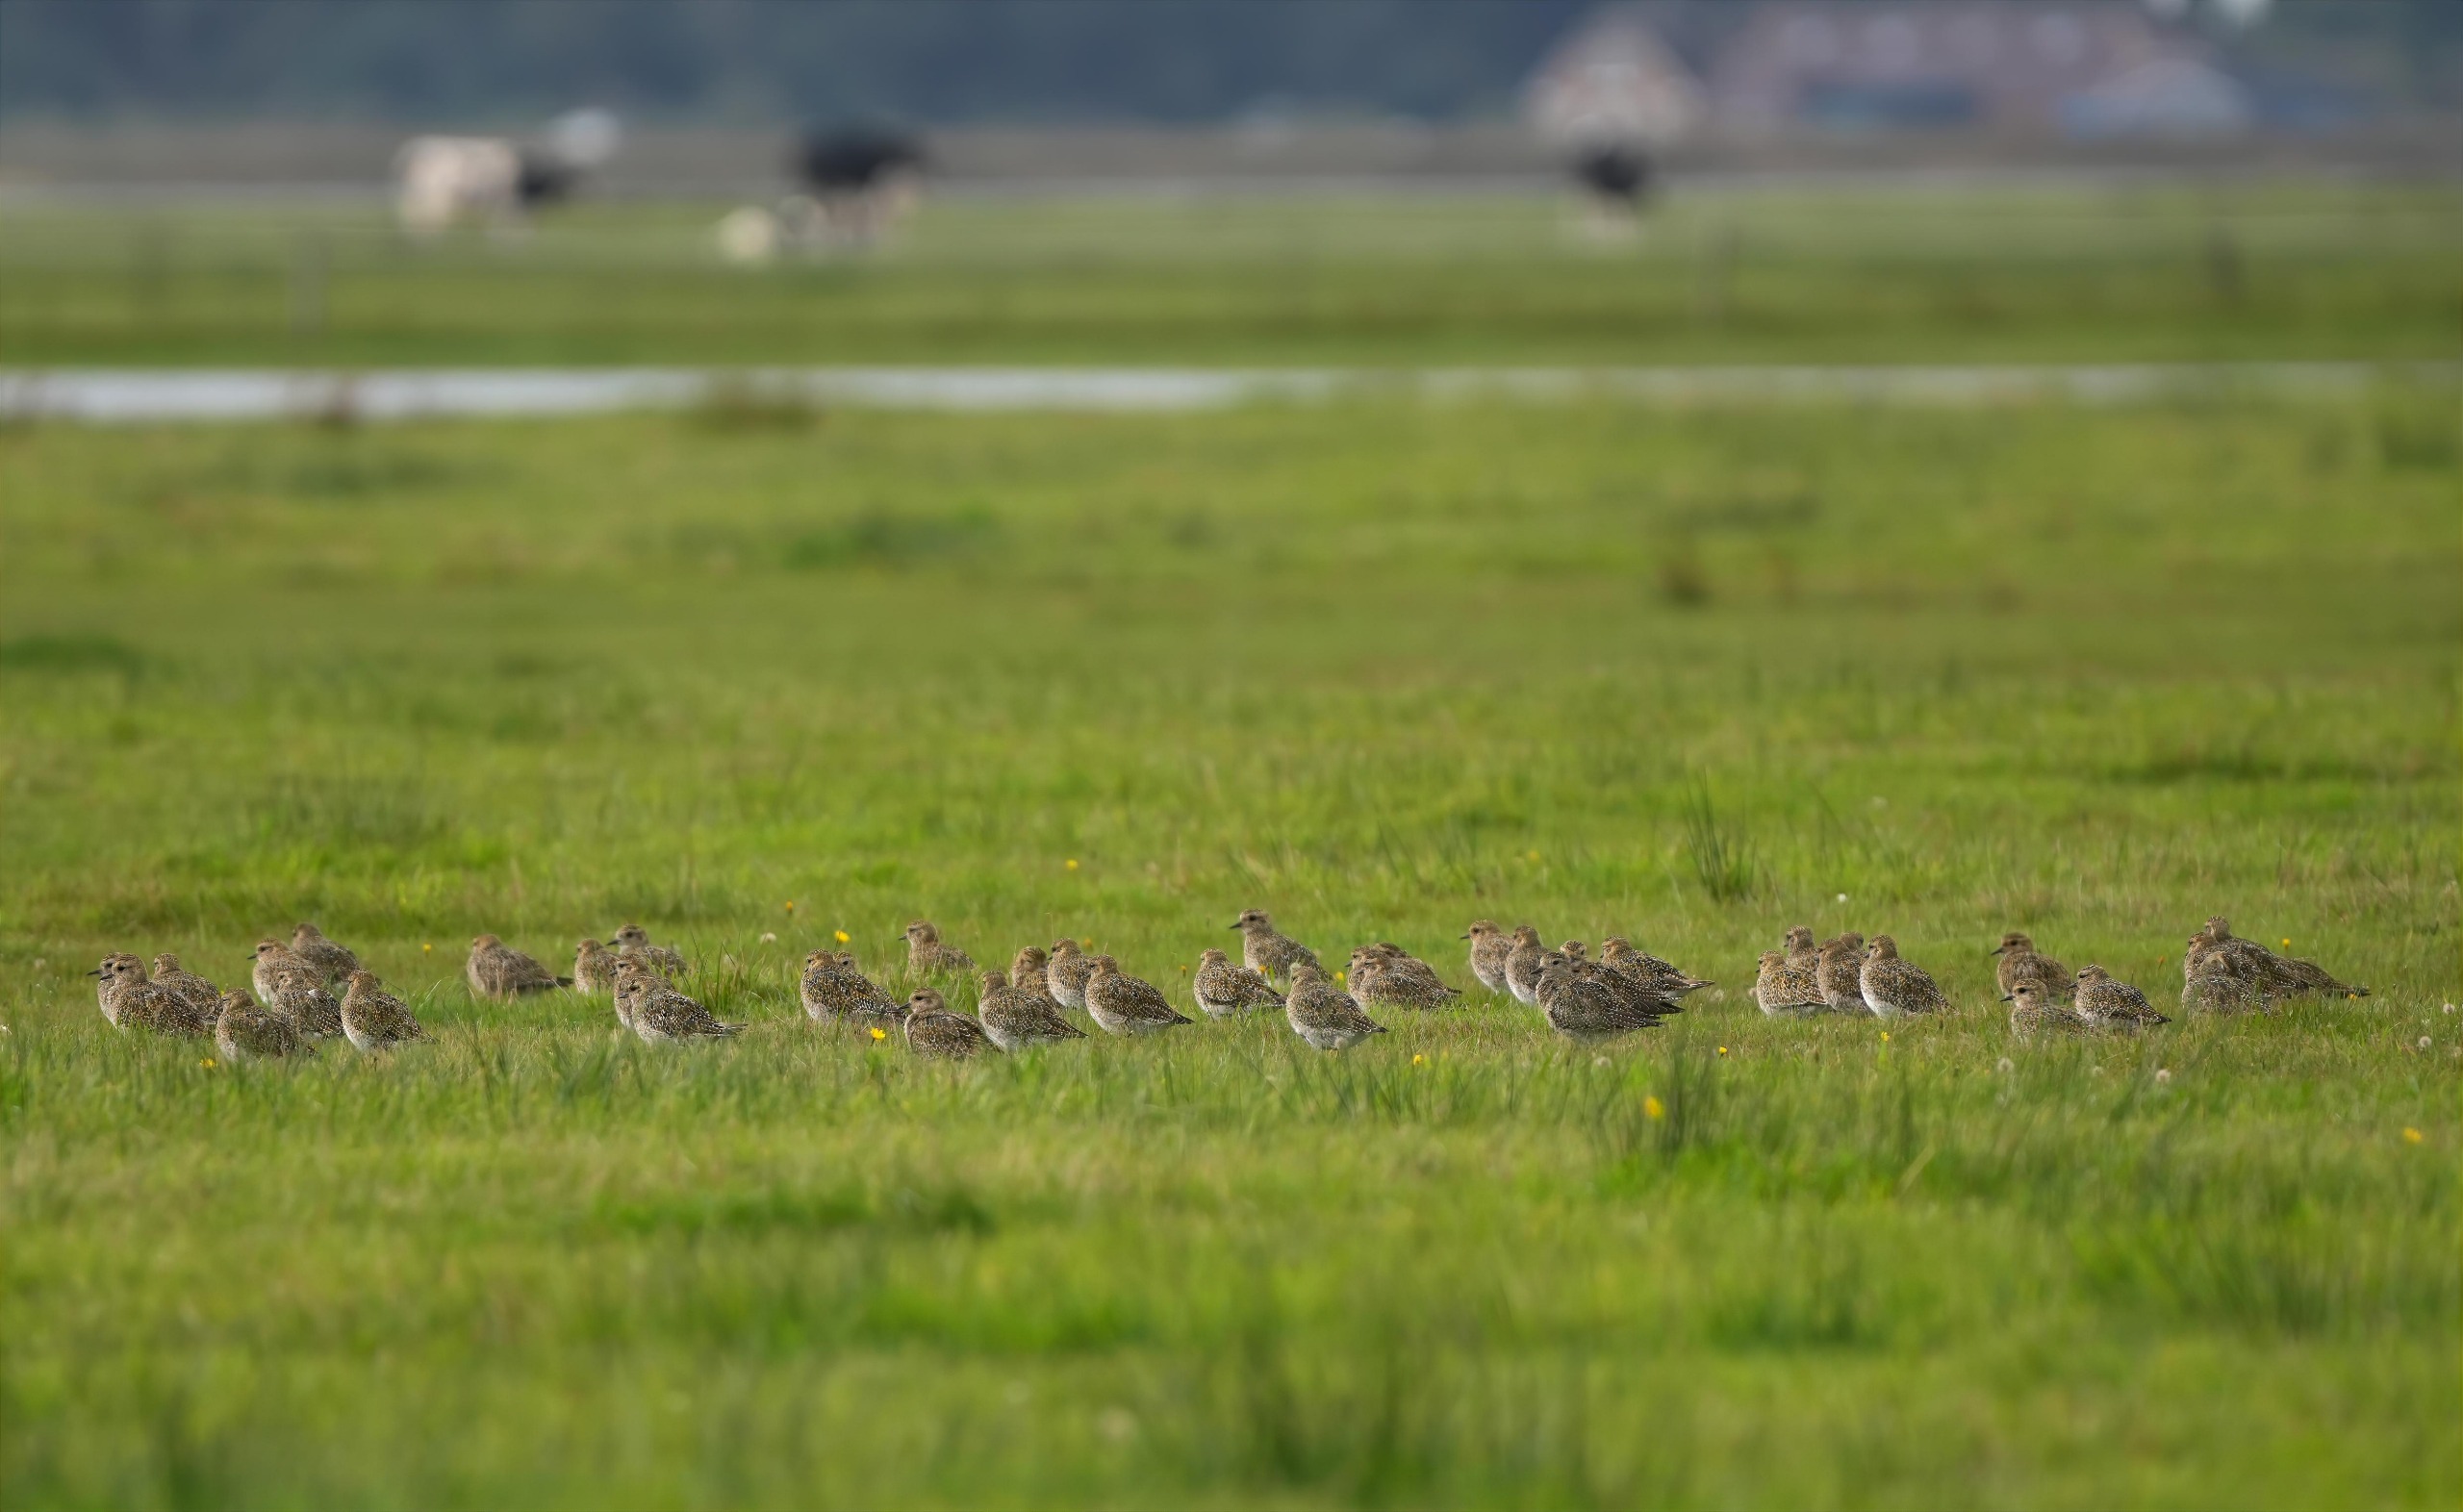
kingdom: Animalia
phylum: Chordata
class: Aves
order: Charadriiformes
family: Charadriidae
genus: Pluvialis
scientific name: Pluvialis apricaria
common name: Hjejle
